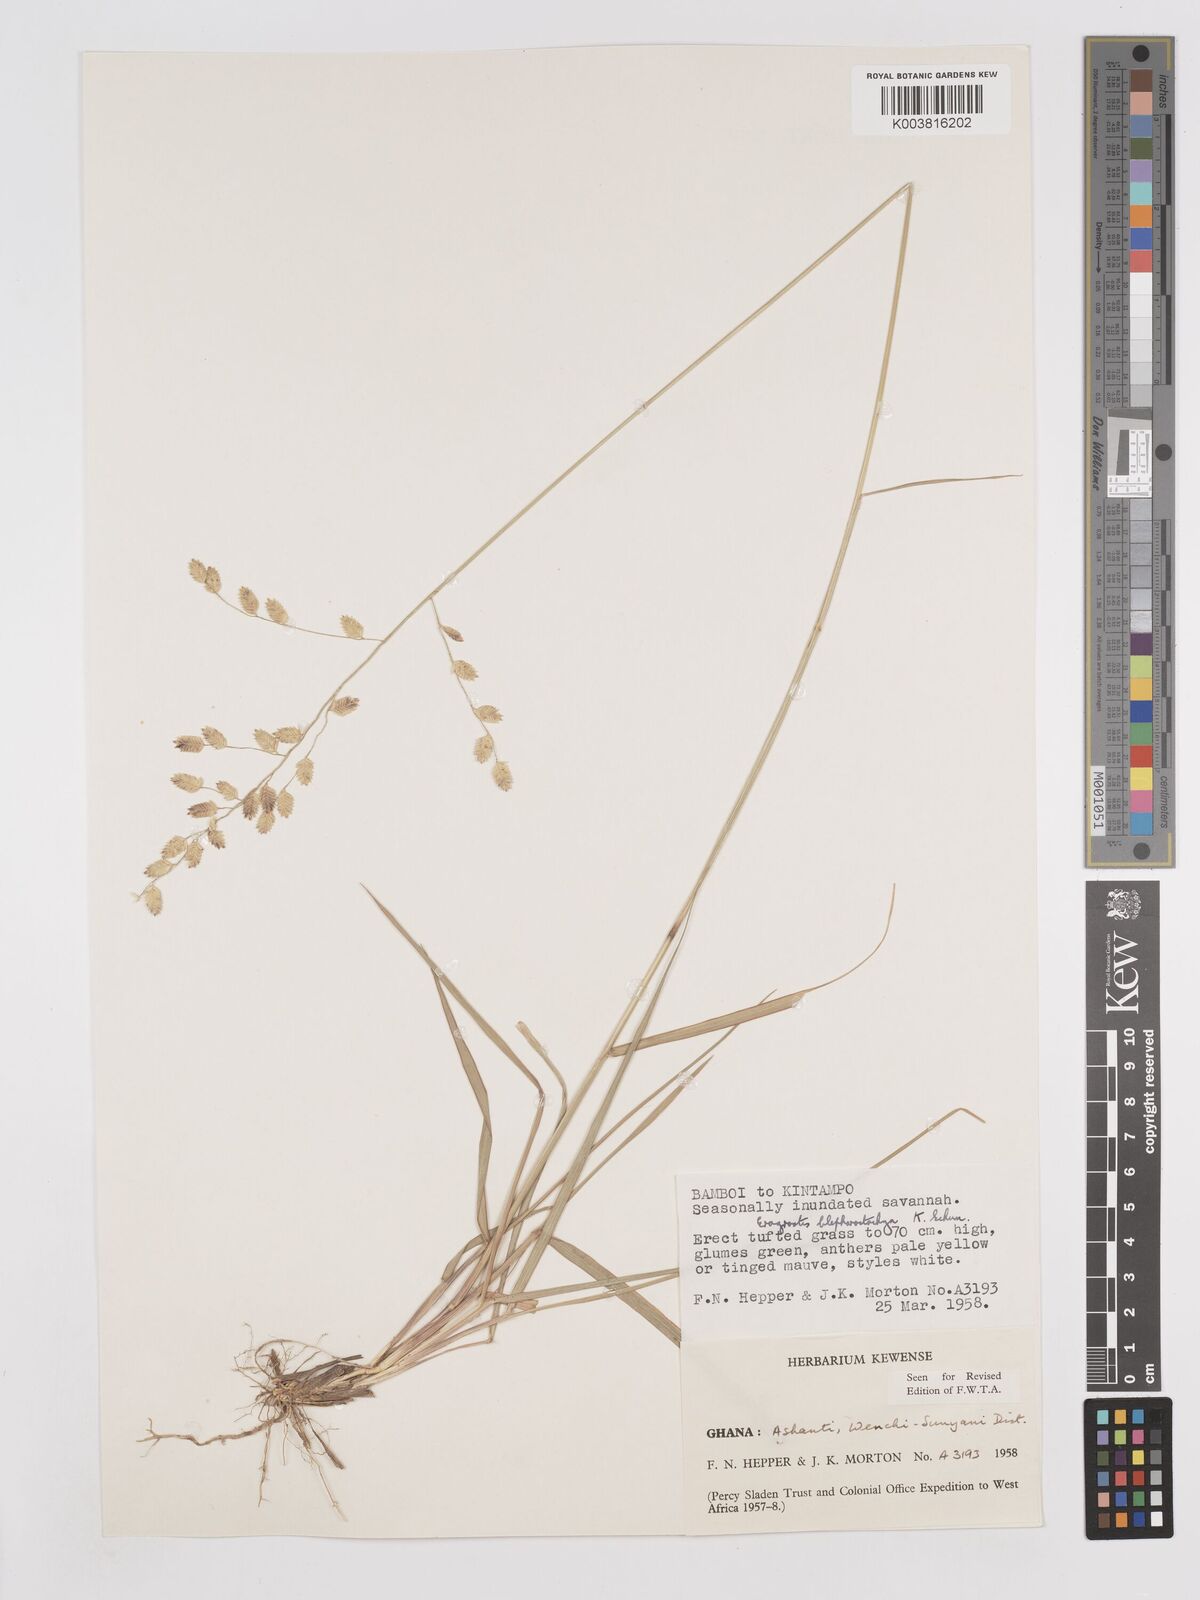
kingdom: Plantae
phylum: Tracheophyta
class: Liliopsida
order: Poales
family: Poaceae
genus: Eragrostis
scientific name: Eragrostis blepharostachya
